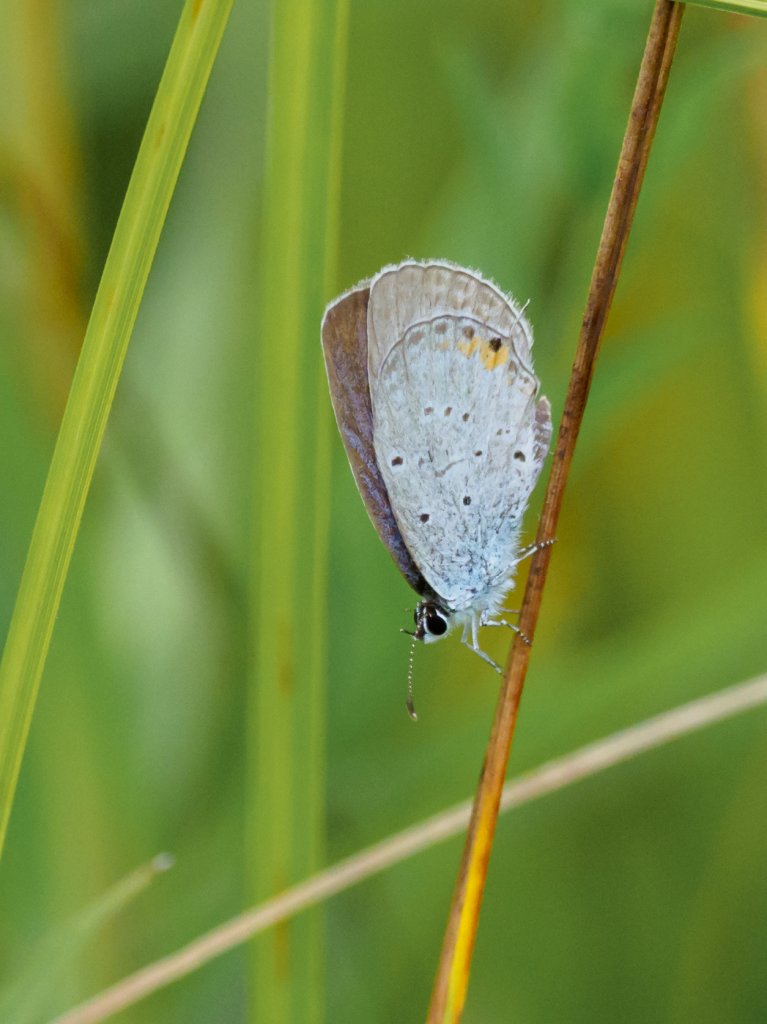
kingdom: Animalia
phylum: Arthropoda
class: Insecta
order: Lepidoptera
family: Lycaenidae
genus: Elkalyce
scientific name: Elkalyce comyntas
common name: Eastern Tailed-Blue
